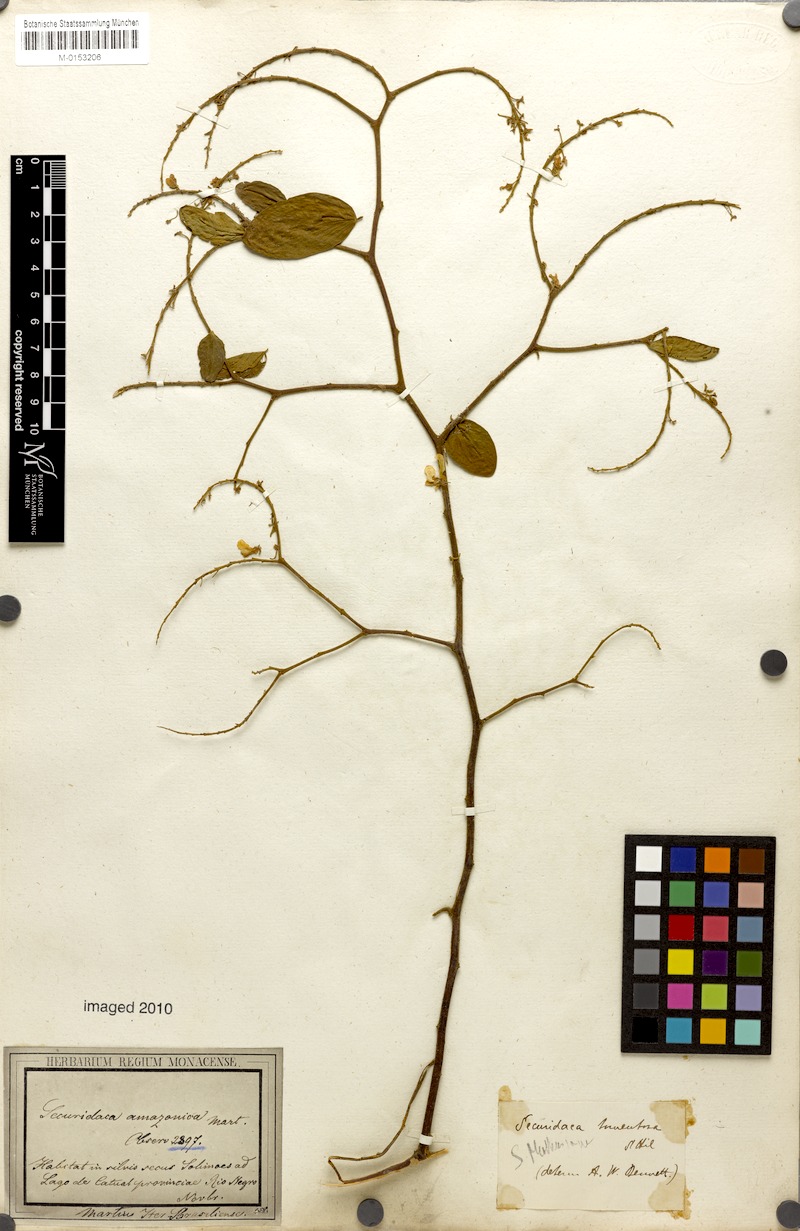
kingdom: Plantae
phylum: Tracheophyta
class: Magnoliopsida
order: Fabales
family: Polygalaceae
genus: Securidaca
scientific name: Securidaca tomentosa
